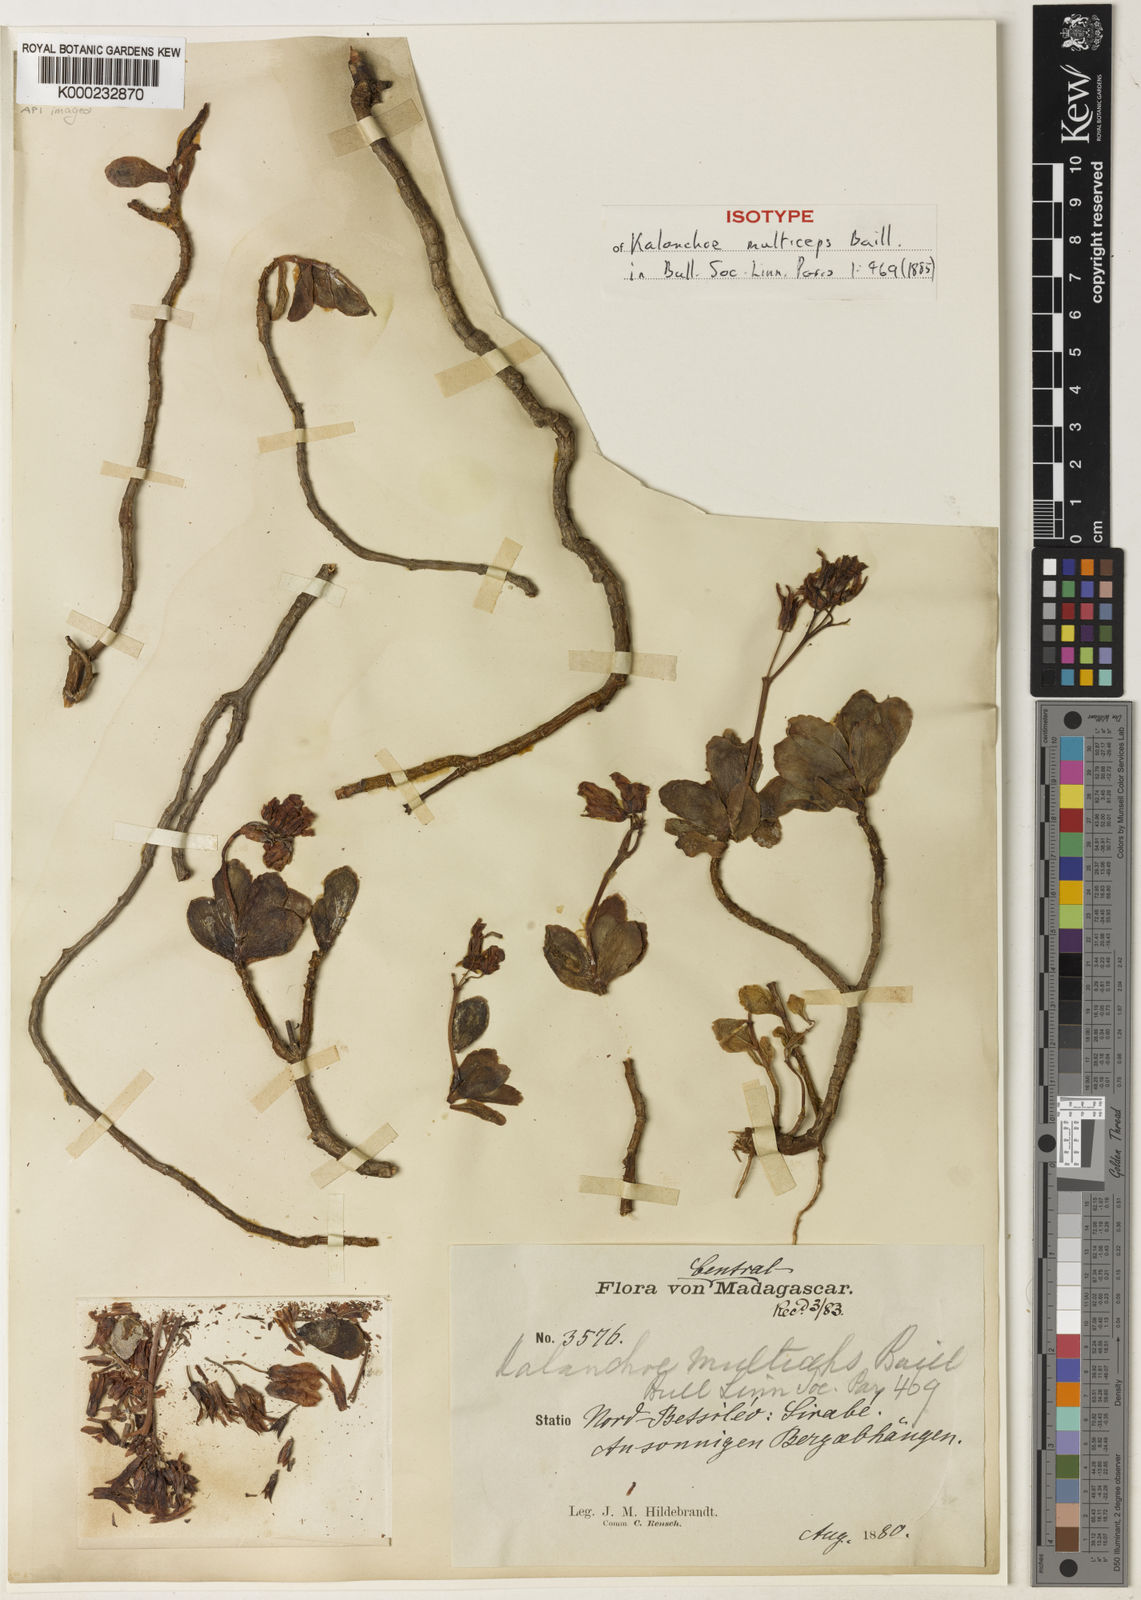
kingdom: Plantae
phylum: Tracheophyta
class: Magnoliopsida
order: Saxifragales
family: Crassulaceae
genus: Kalanchoe
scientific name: Kalanchoe pumila
